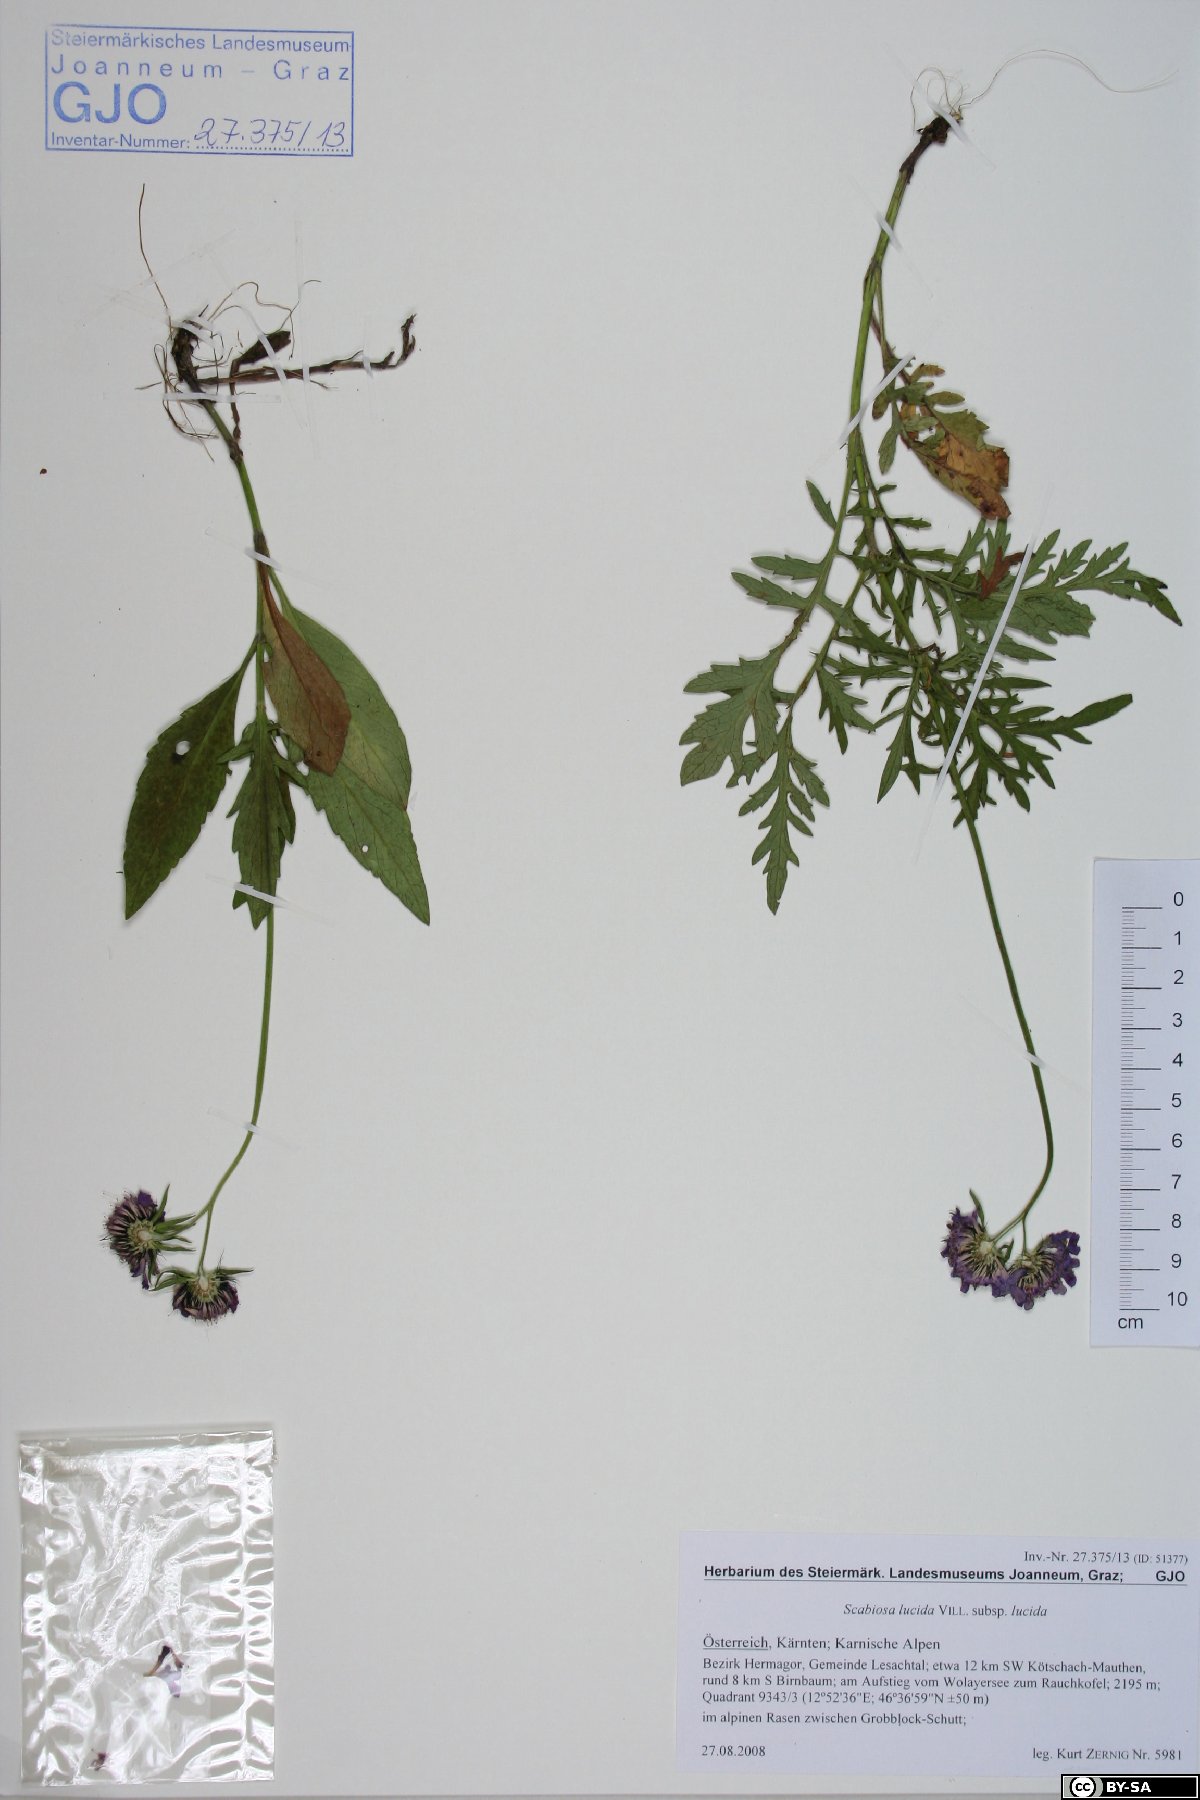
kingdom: Plantae
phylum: Tracheophyta
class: Magnoliopsida
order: Dipsacales
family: Caprifoliaceae
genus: Scabiosa
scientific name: Scabiosa lucida
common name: Shining scabious
